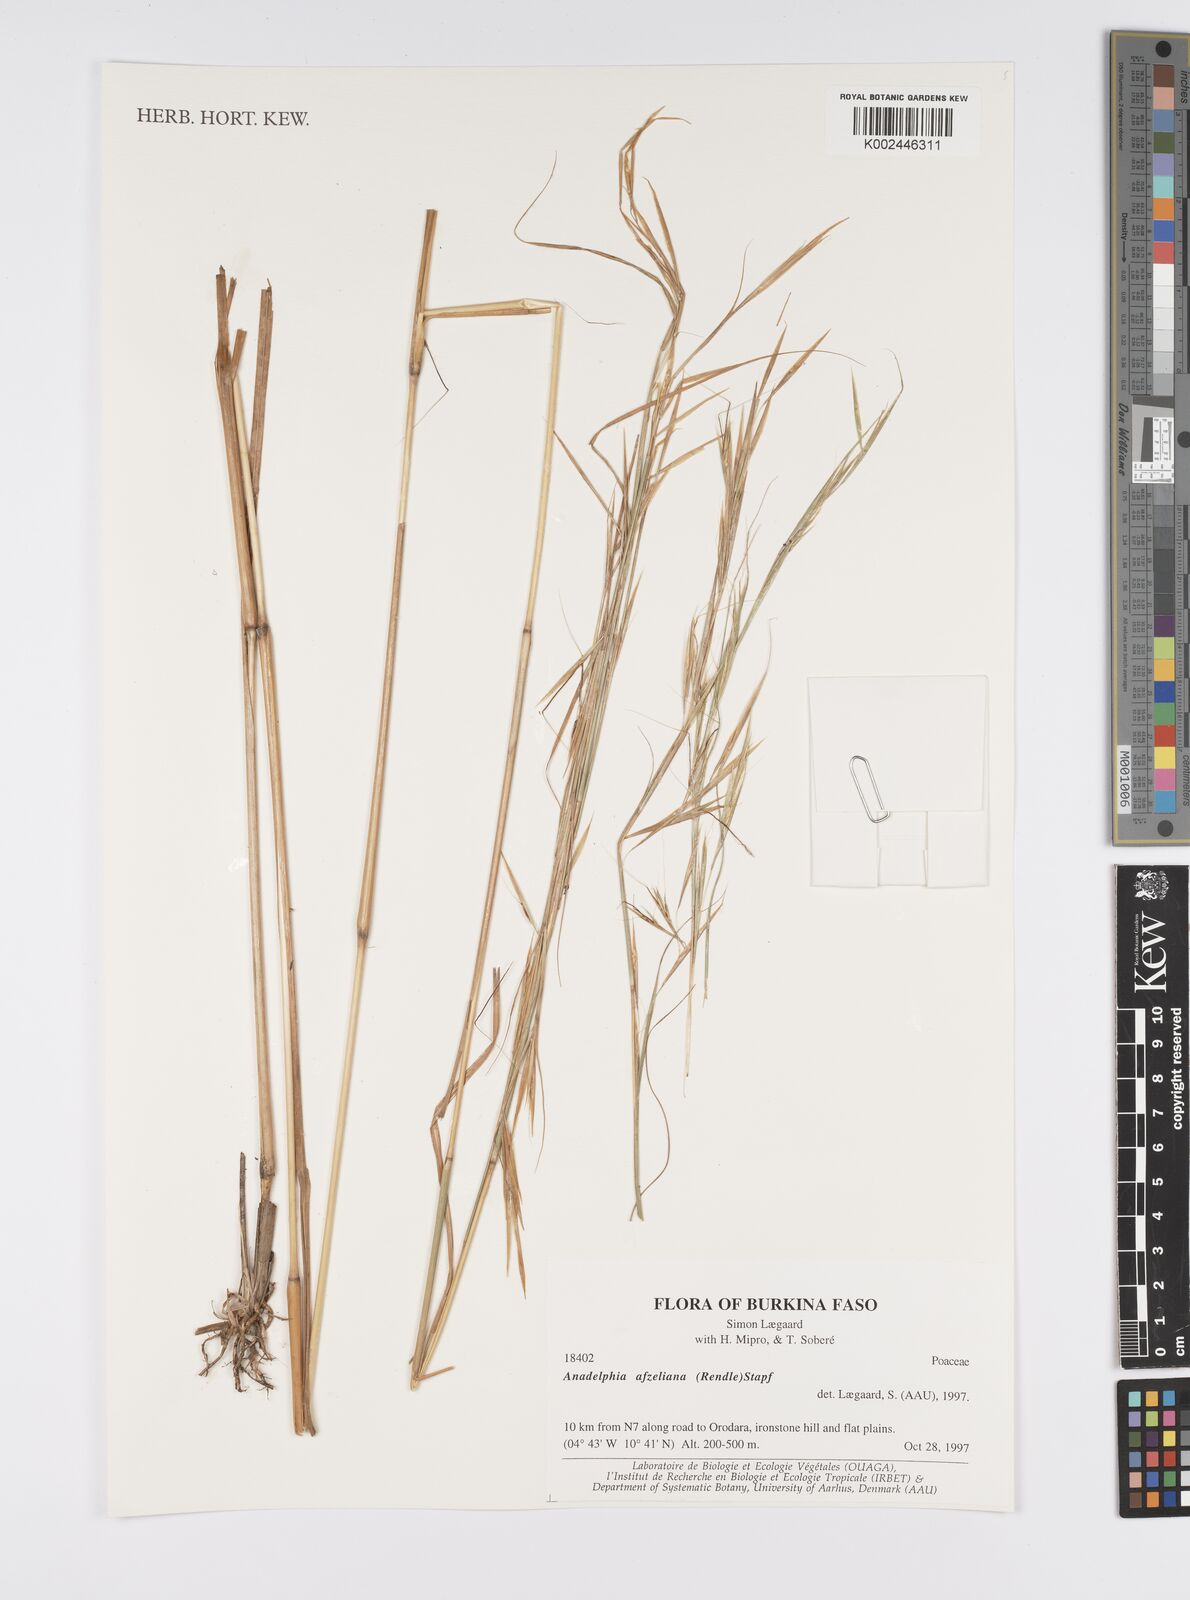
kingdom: Plantae
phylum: Tracheophyta
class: Liliopsida
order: Poales
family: Poaceae
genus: Anadelphia
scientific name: Anadelphia afzeliana
